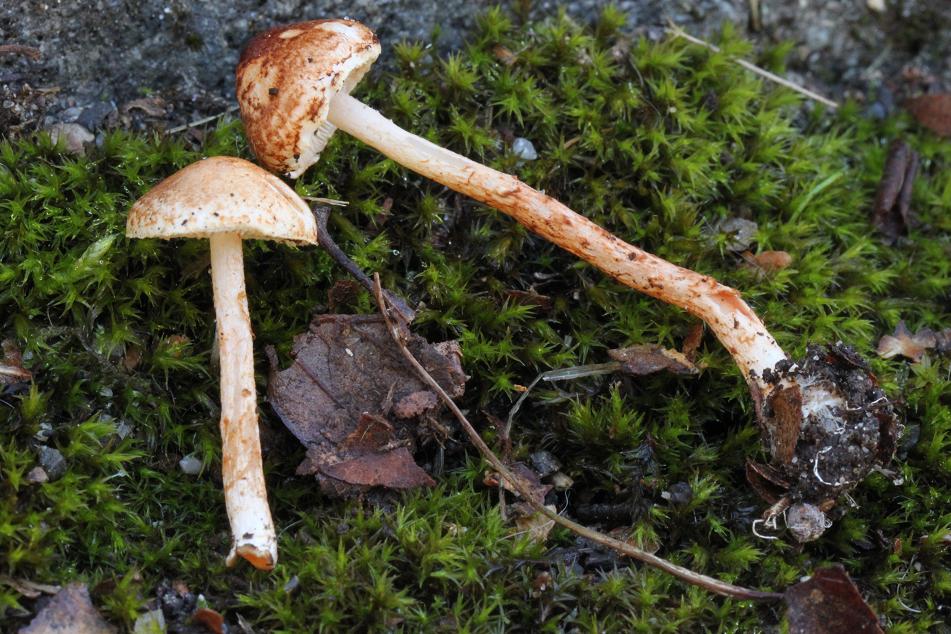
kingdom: Fungi
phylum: Basidiomycota
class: Agaricomycetes
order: Agaricales
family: Agaricaceae
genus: Lepiota
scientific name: Lepiota castanea
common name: kastaniebrun parasolhat
